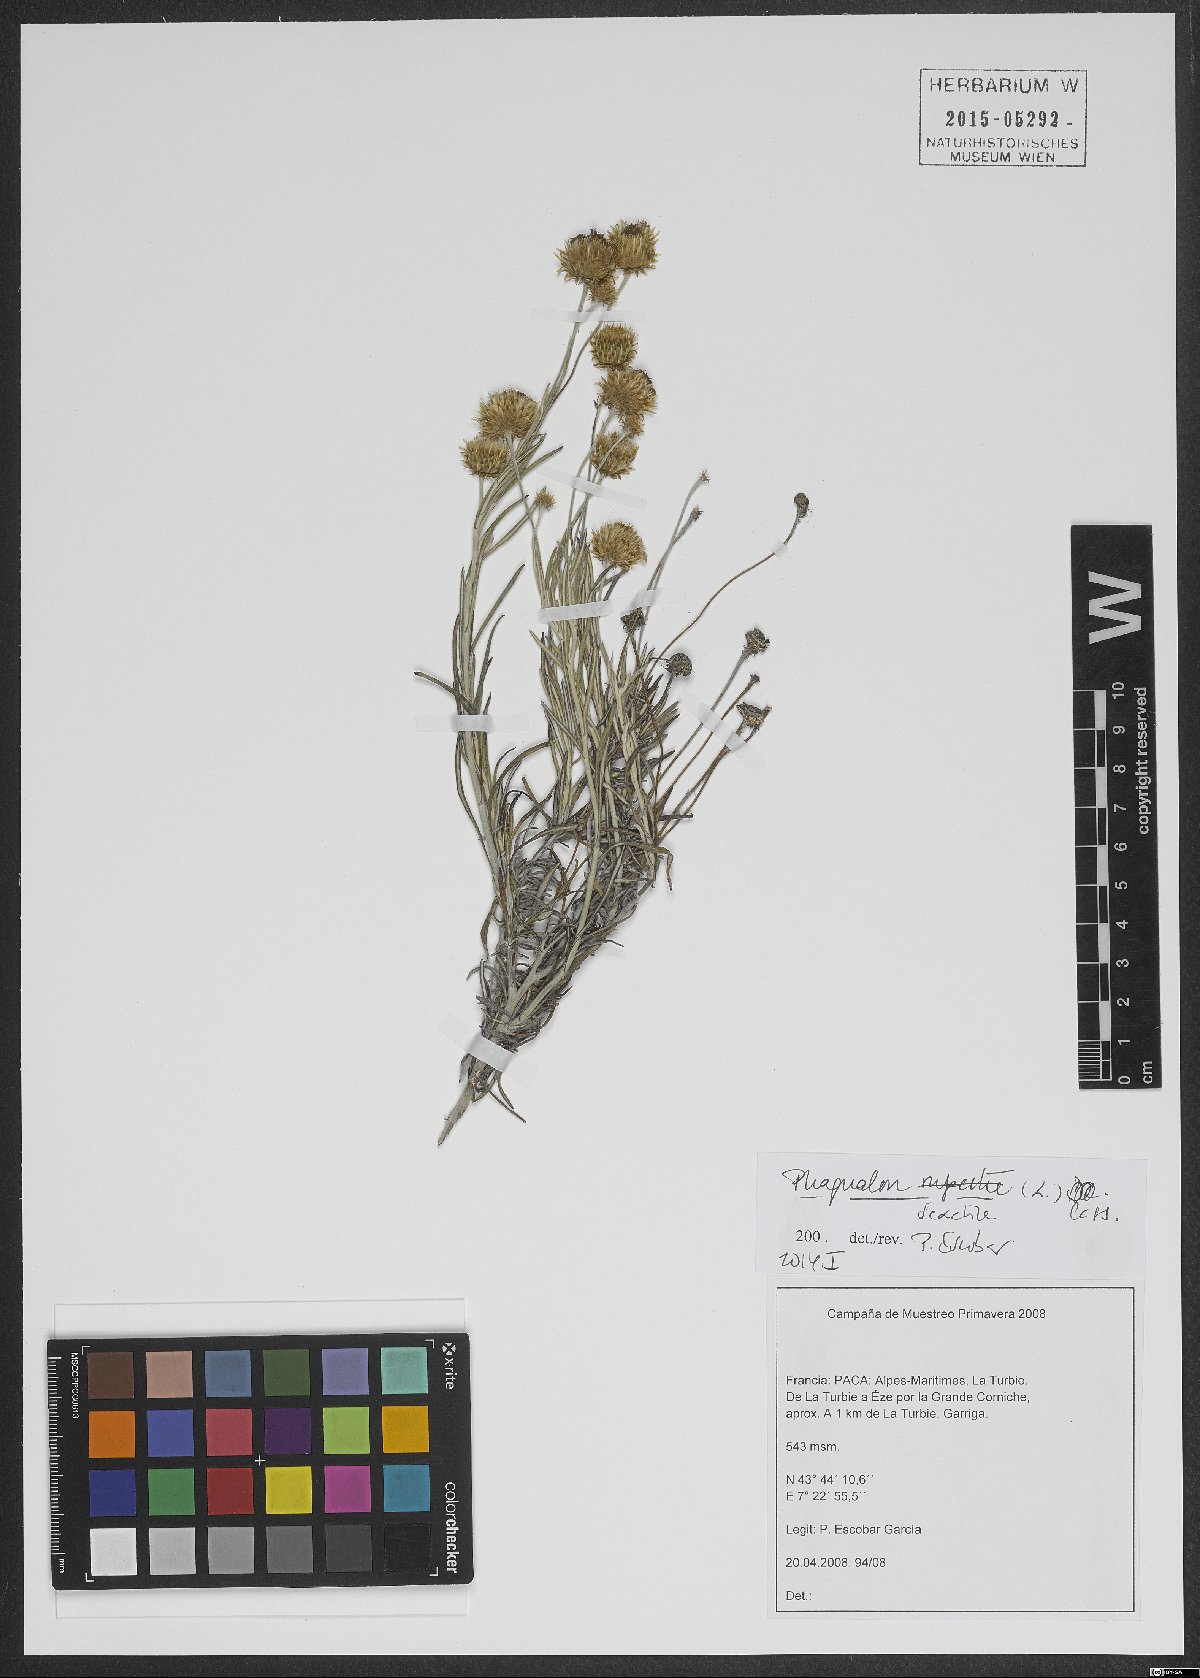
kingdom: Plantae
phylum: Tracheophyta
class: Magnoliopsida
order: Asterales
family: Asteraceae
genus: Phagnalon
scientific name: Phagnalon saxatile
